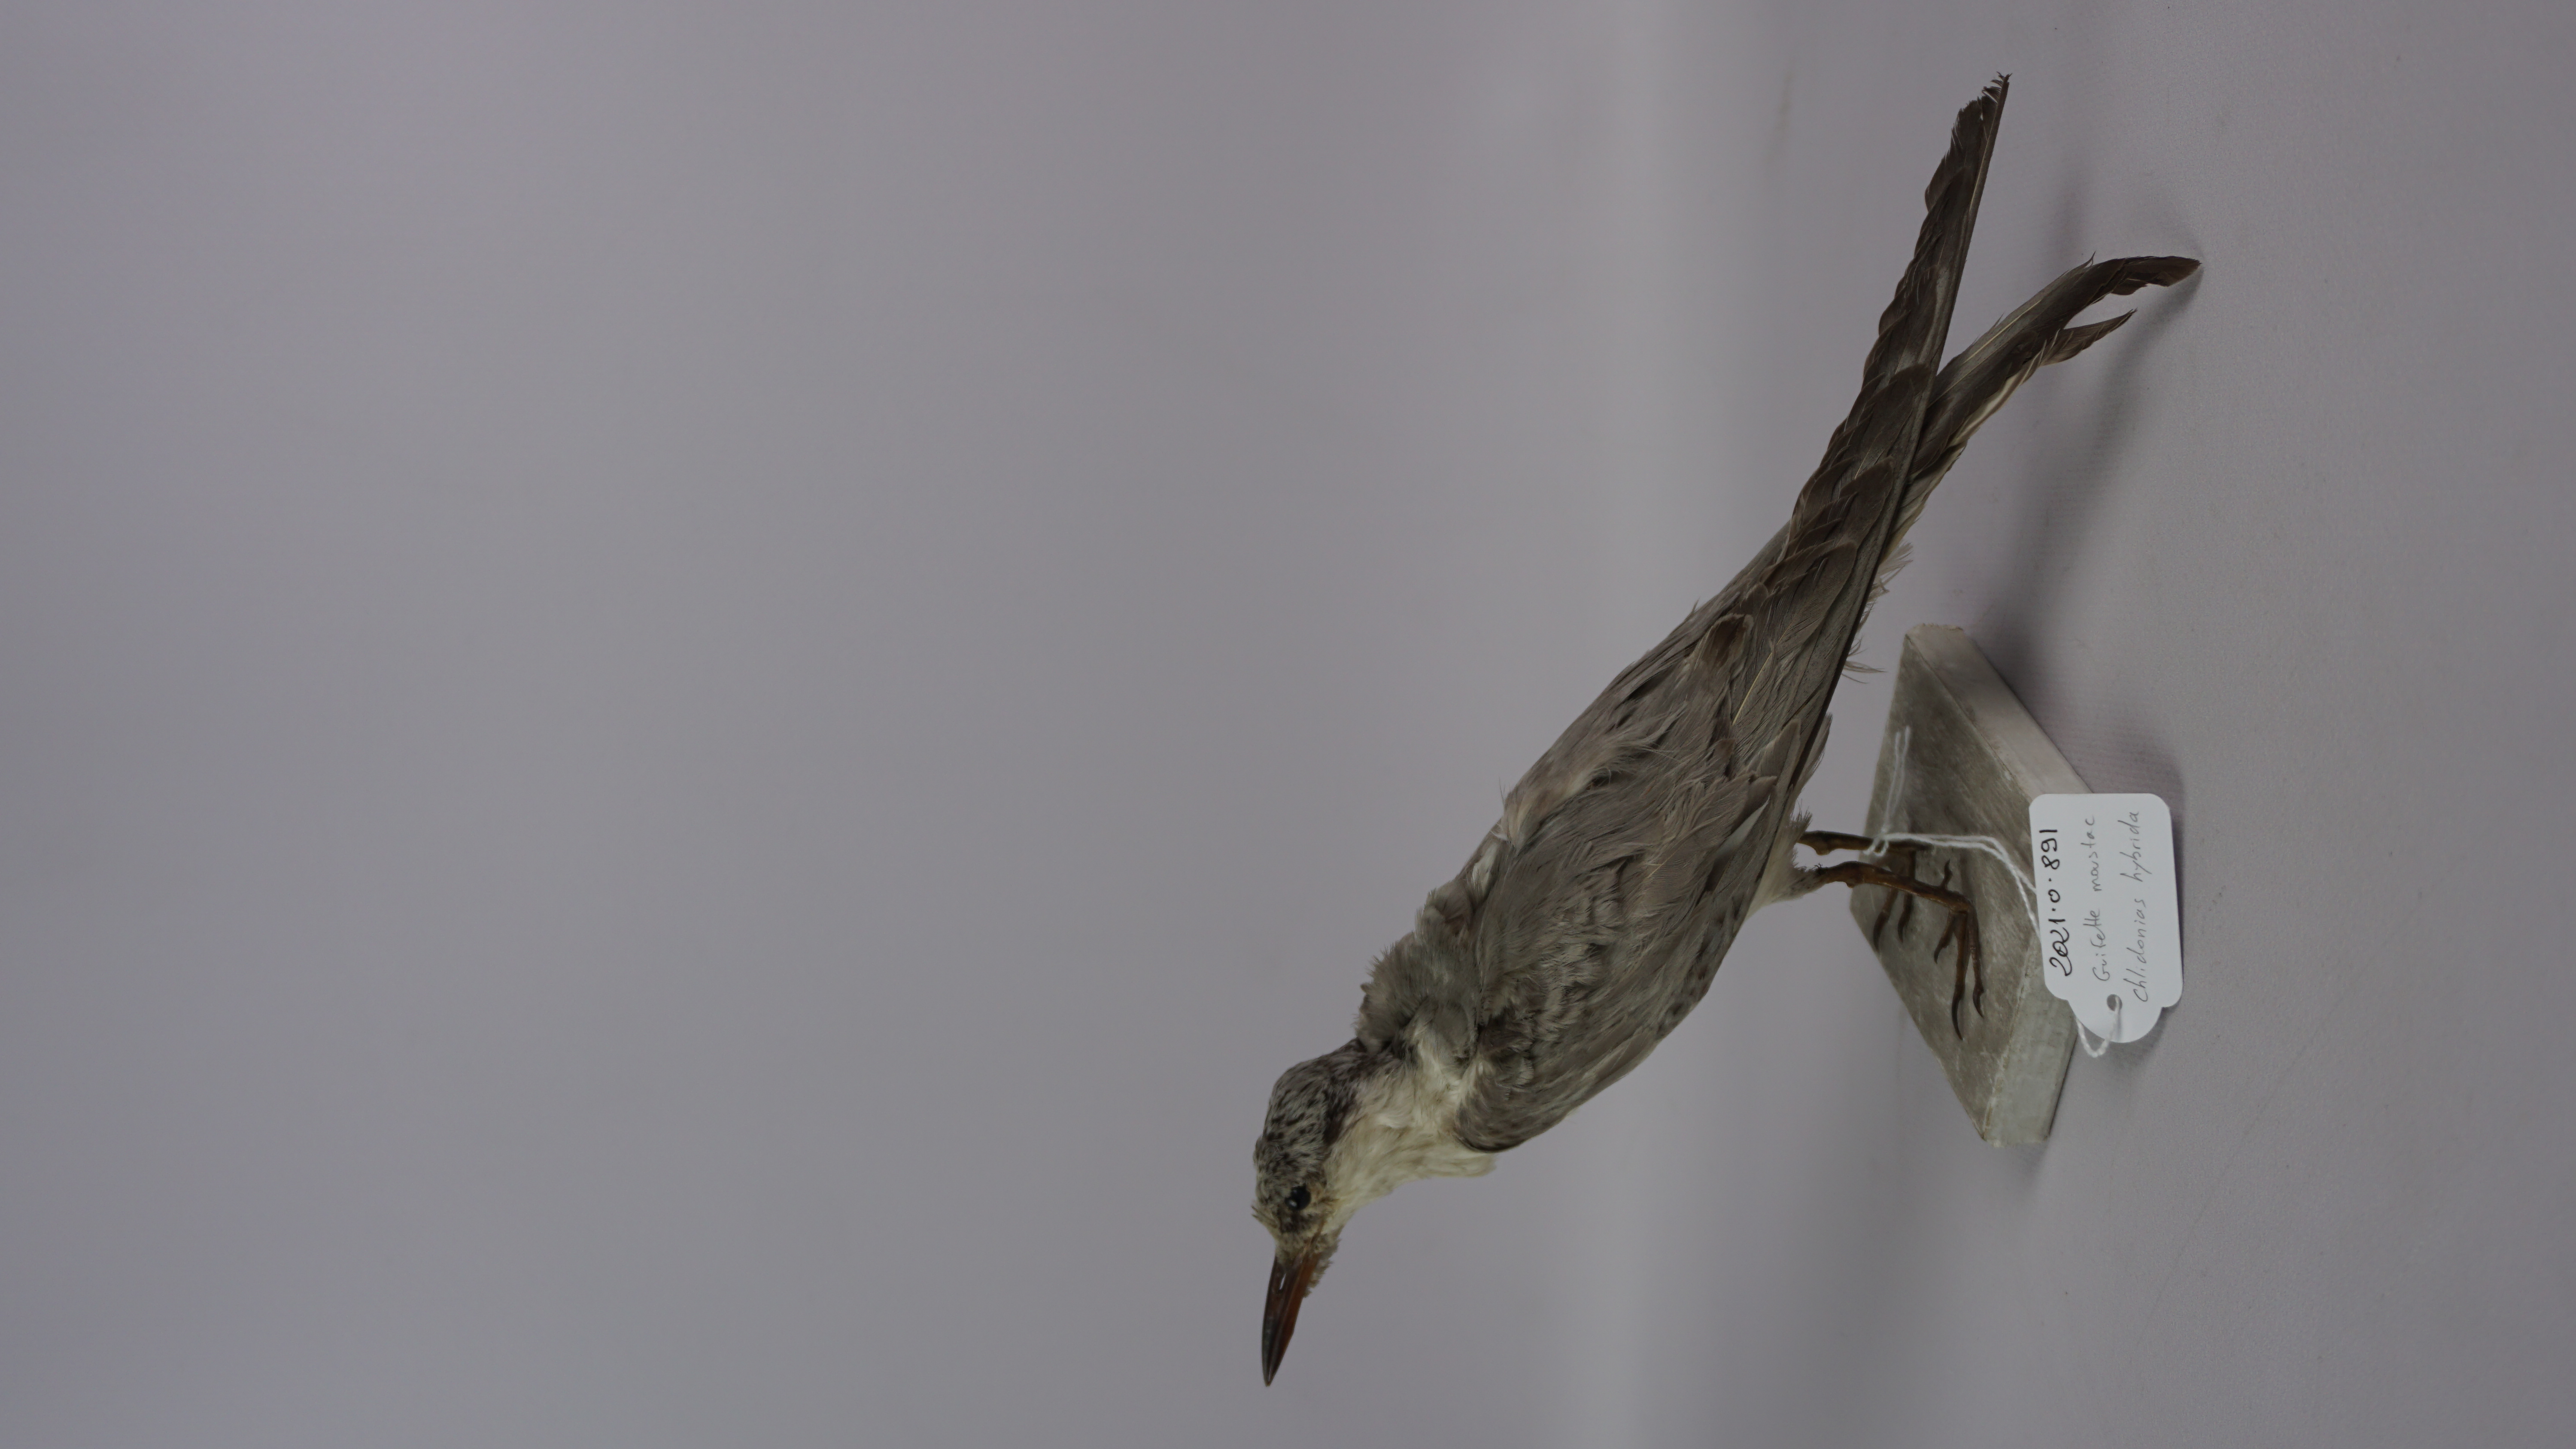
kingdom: Animalia
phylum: Chordata
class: Aves
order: Charadriiformes
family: Laridae
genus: Chlidonias
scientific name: Chlidonias hybrida
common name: Whiskered tern
